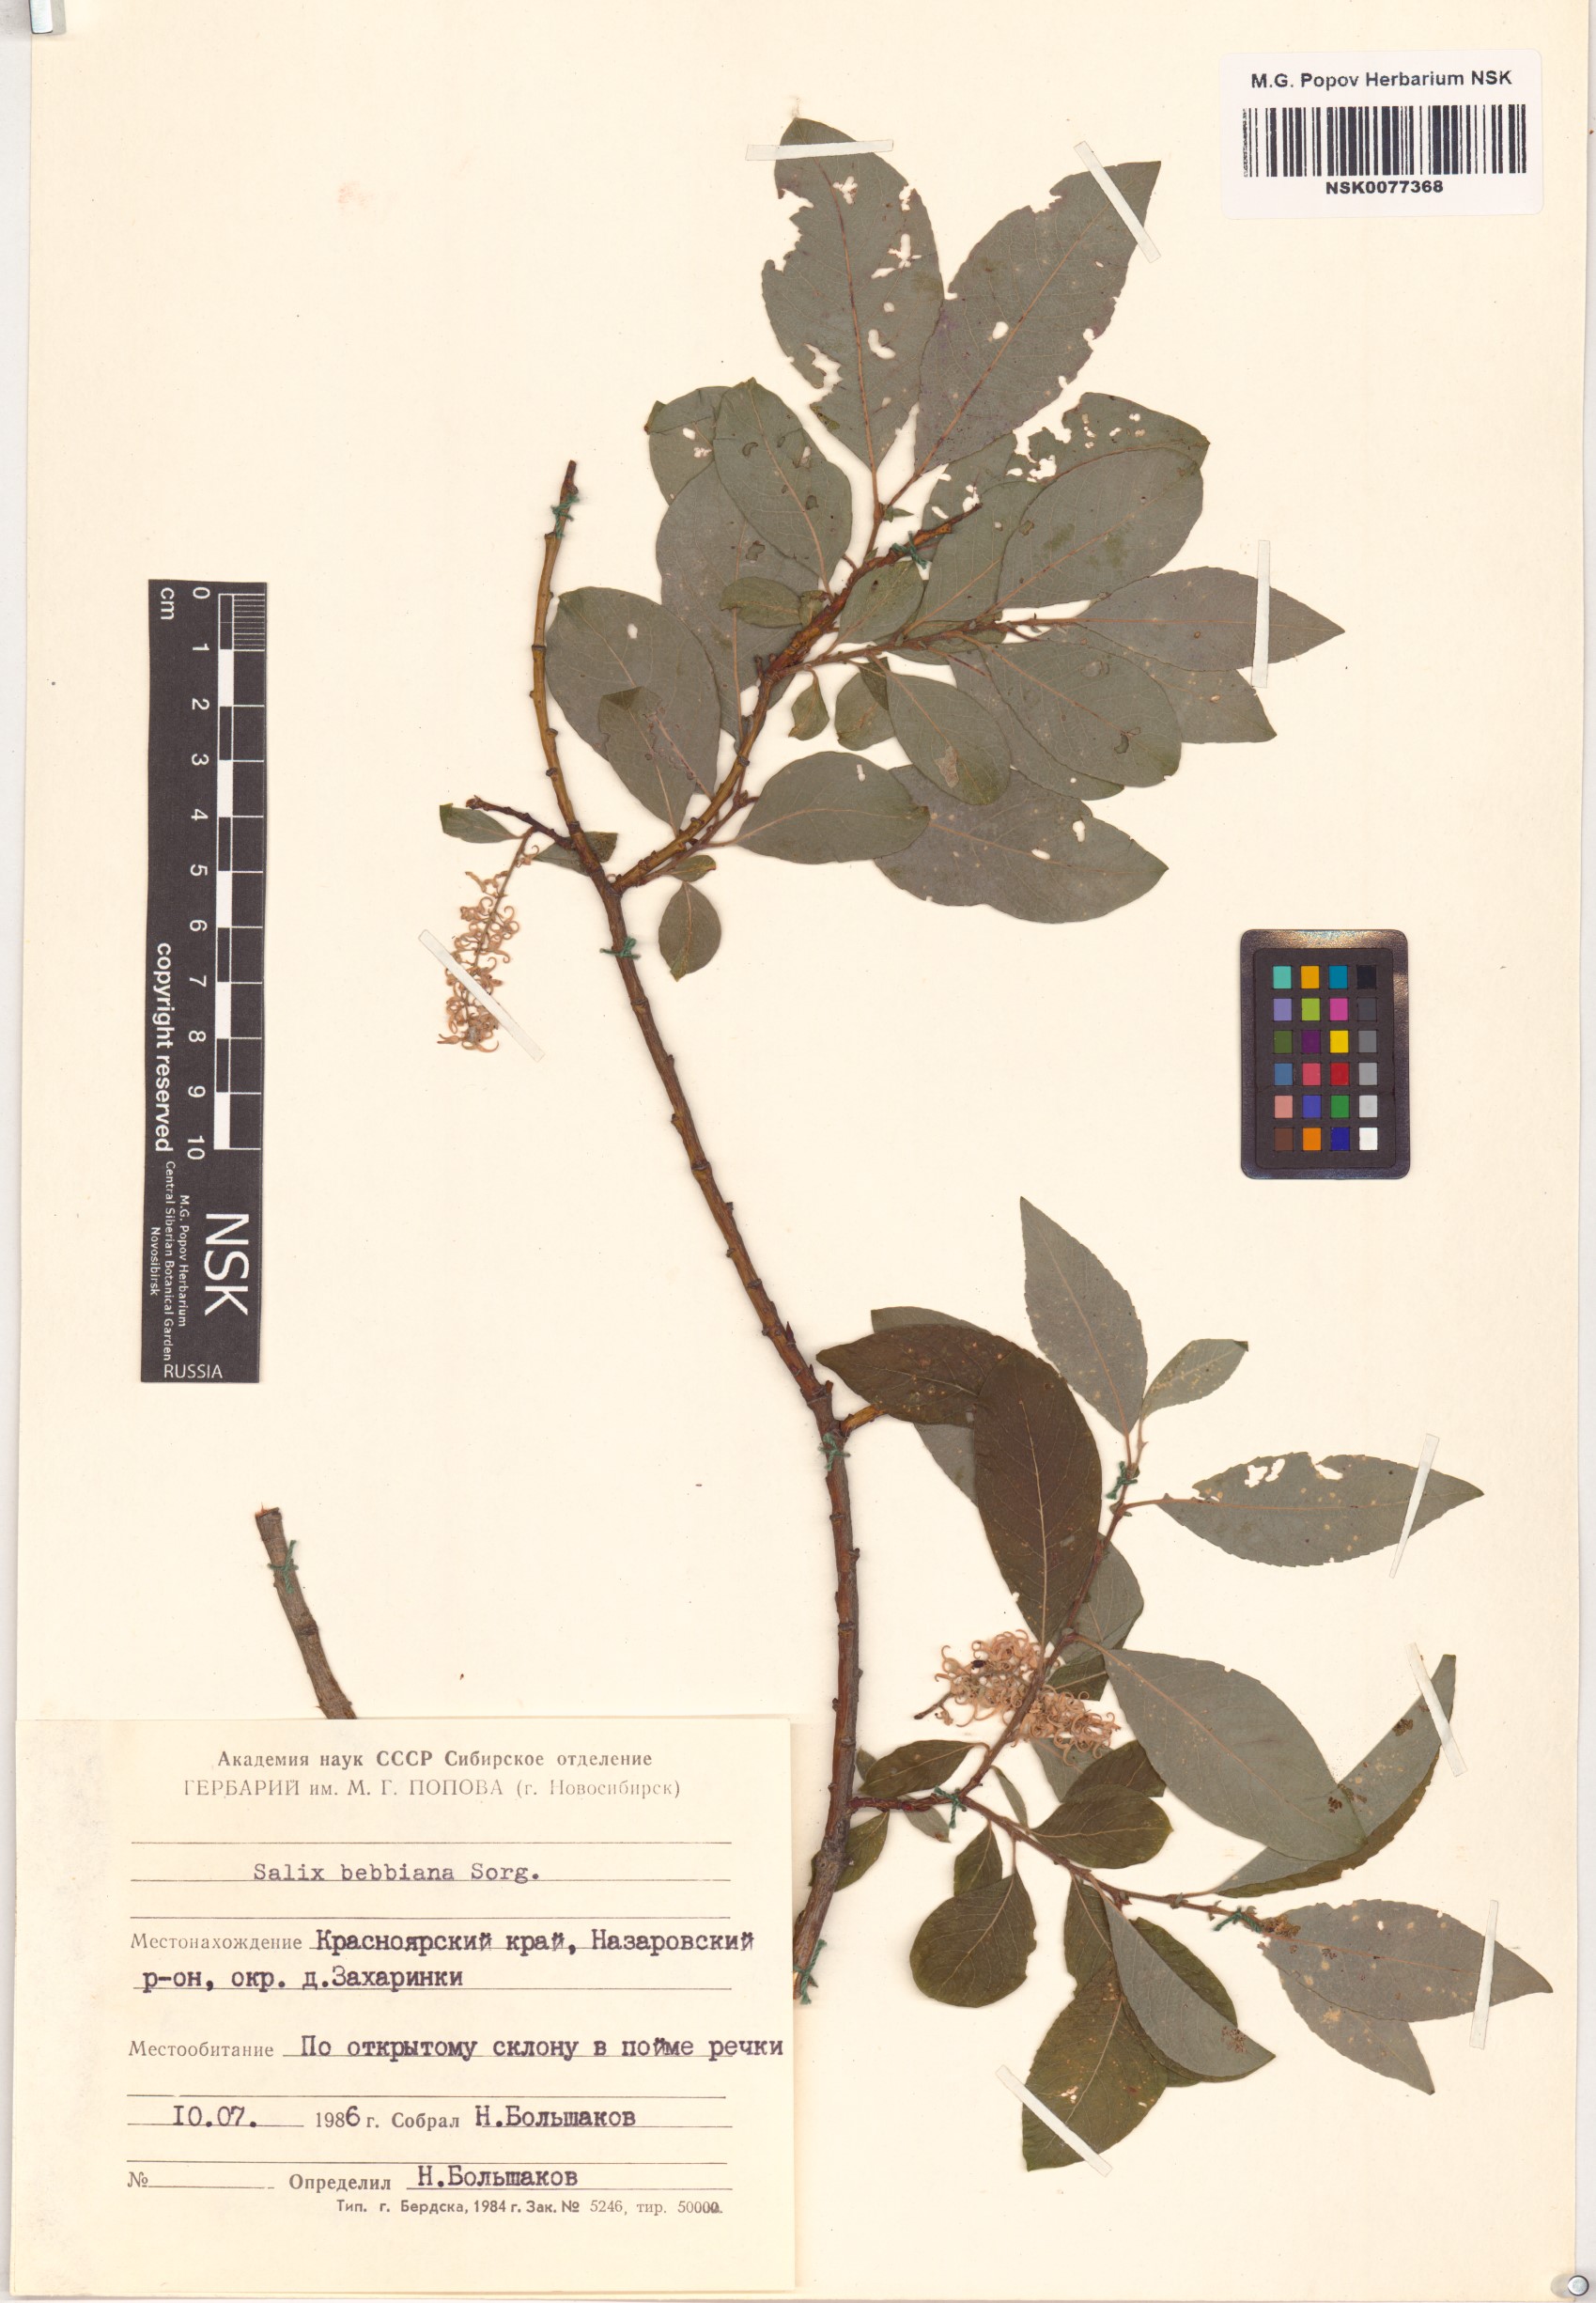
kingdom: Plantae
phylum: Tracheophyta
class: Magnoliopsida
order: Malpighiales
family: Salicaceae
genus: Salix
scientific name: Salix bebbiana
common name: Bebb's willow
